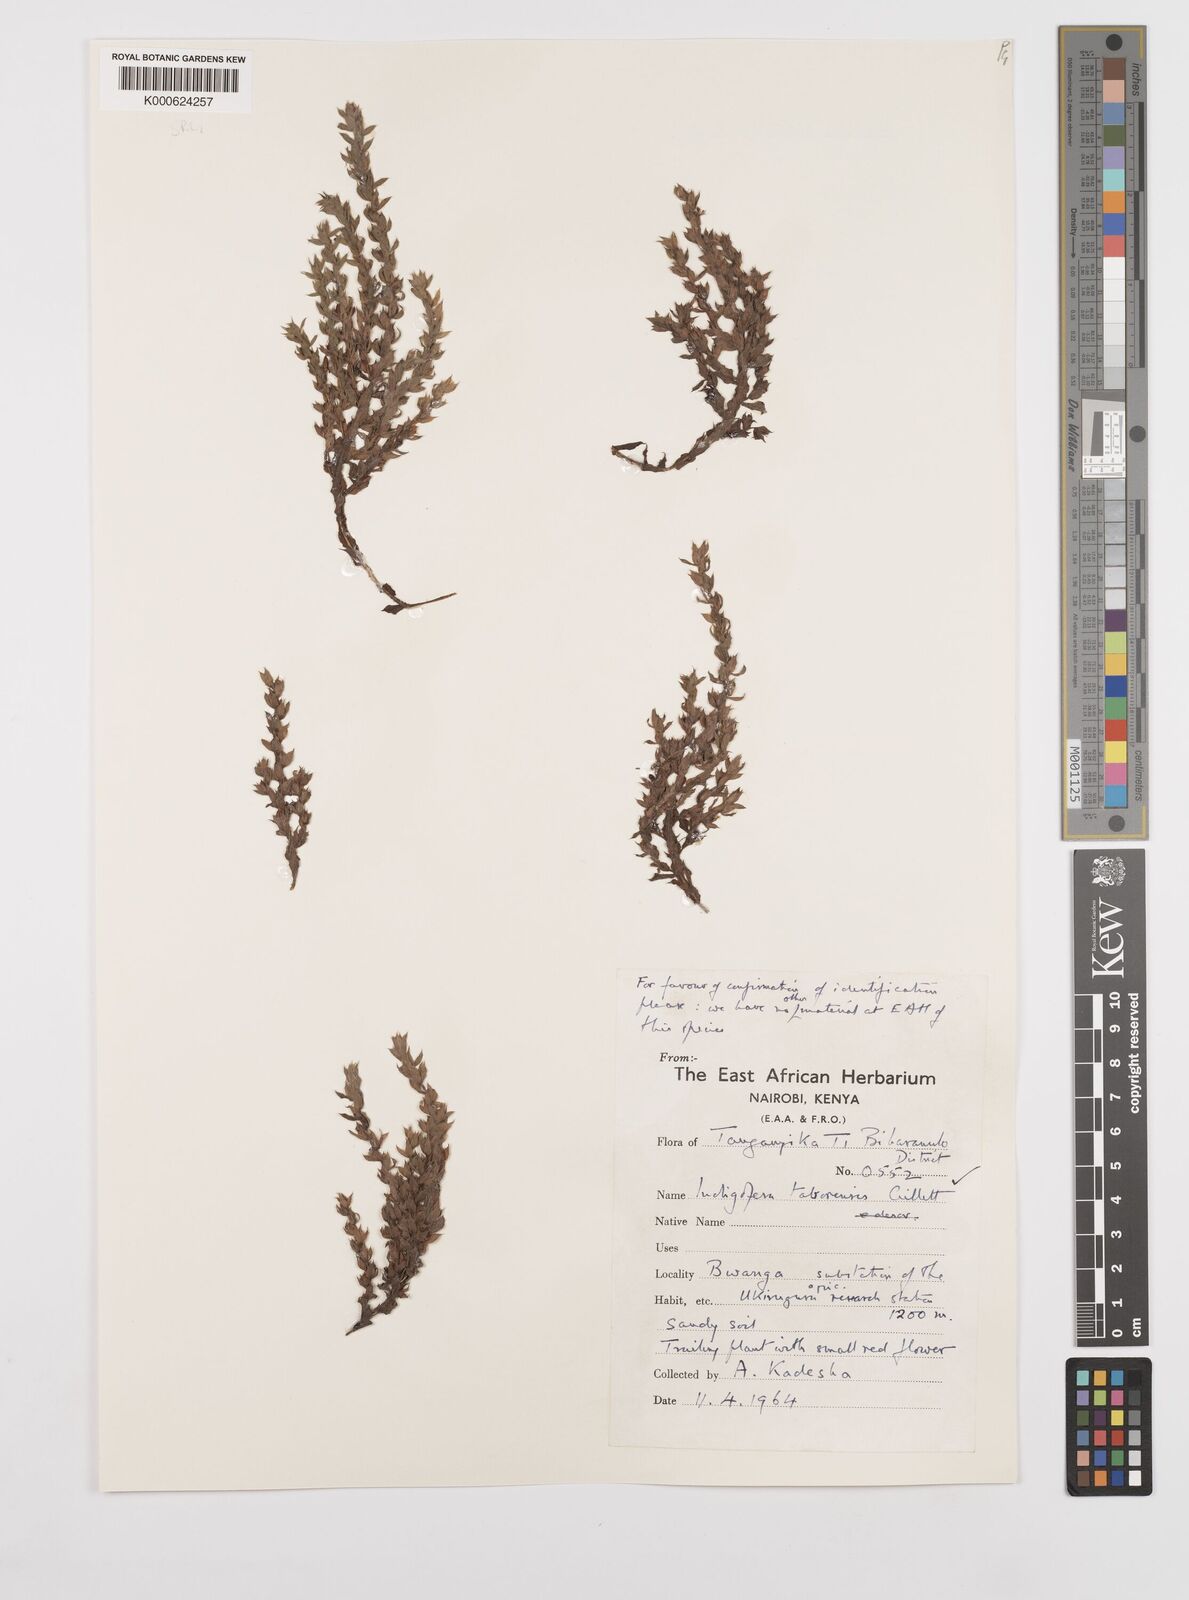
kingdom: Plantae
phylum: Tracheophyta
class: Magnoliopsida
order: Fabales
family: Fabaceae
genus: Indigofera
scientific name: Indigofera taborensis
